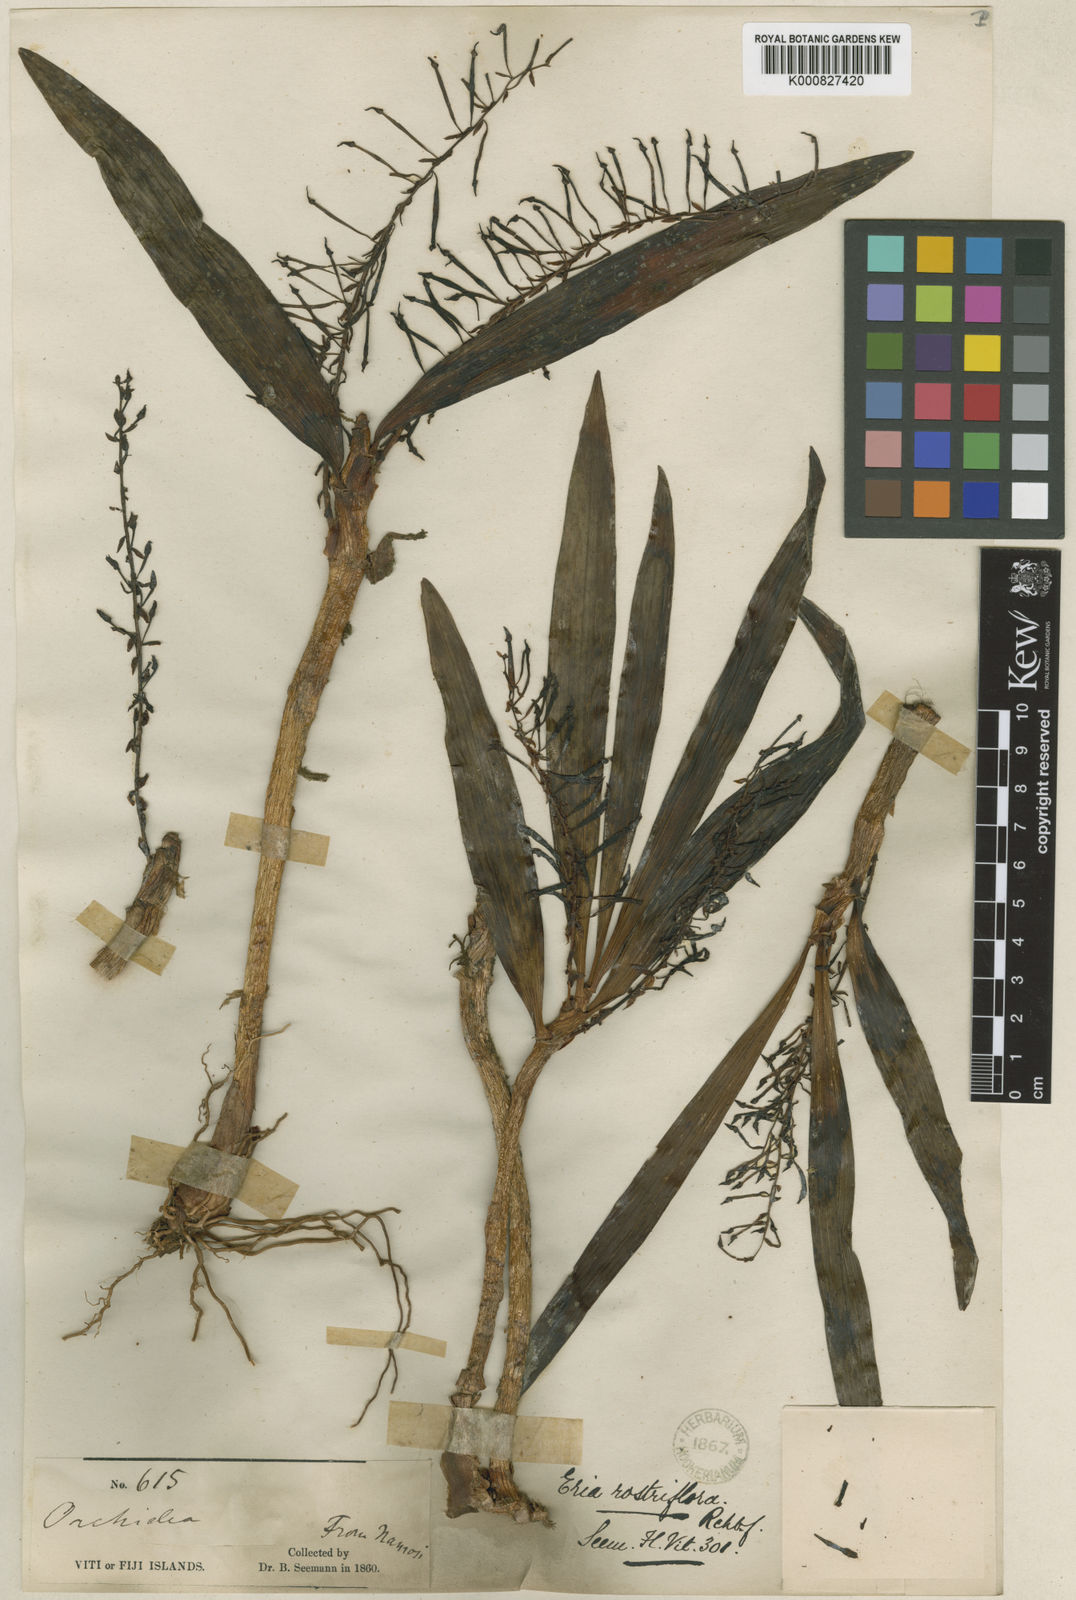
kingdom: Plantae
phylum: Tracheophyta
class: Liliopsida
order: Asparagales
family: Orchidaceae
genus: Eria
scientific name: Eria rostriflora
